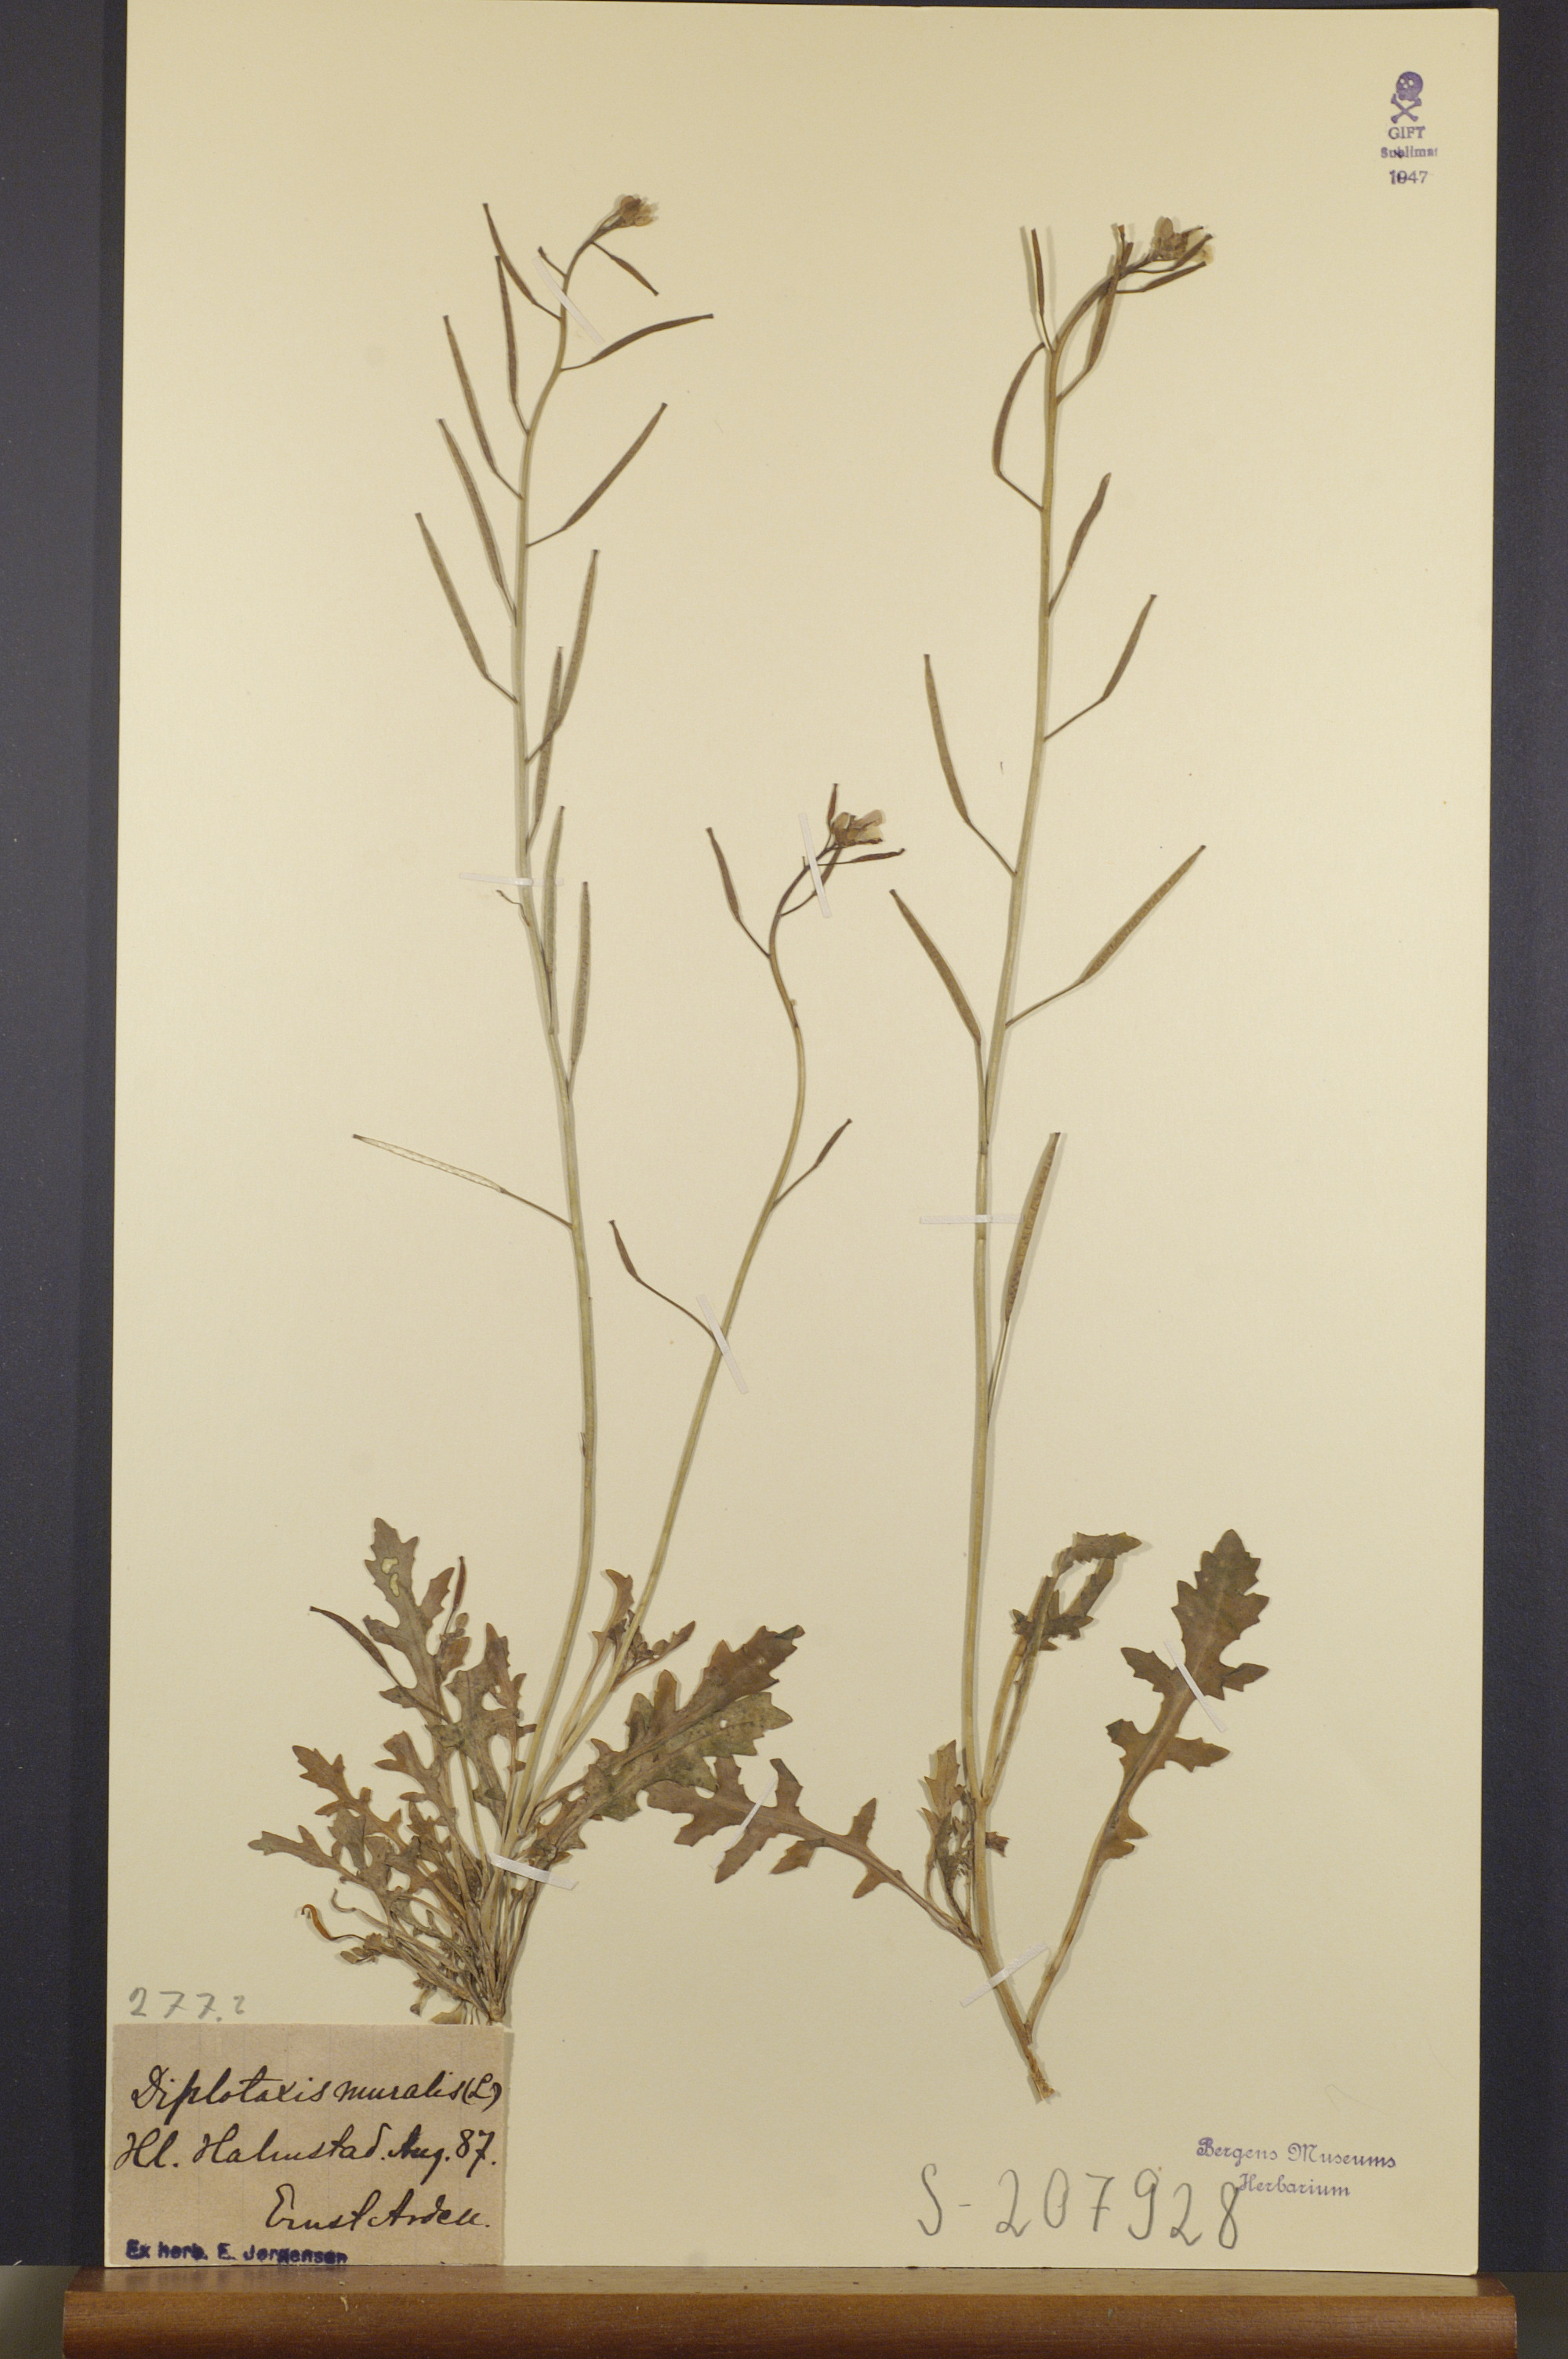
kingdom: Plantae
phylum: Tracheophyta
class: Magnoliopsida
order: Brassicales
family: Brassicaceae
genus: Diplotaxis
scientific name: Diplotaxis muralis
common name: Annual wall-rocket
